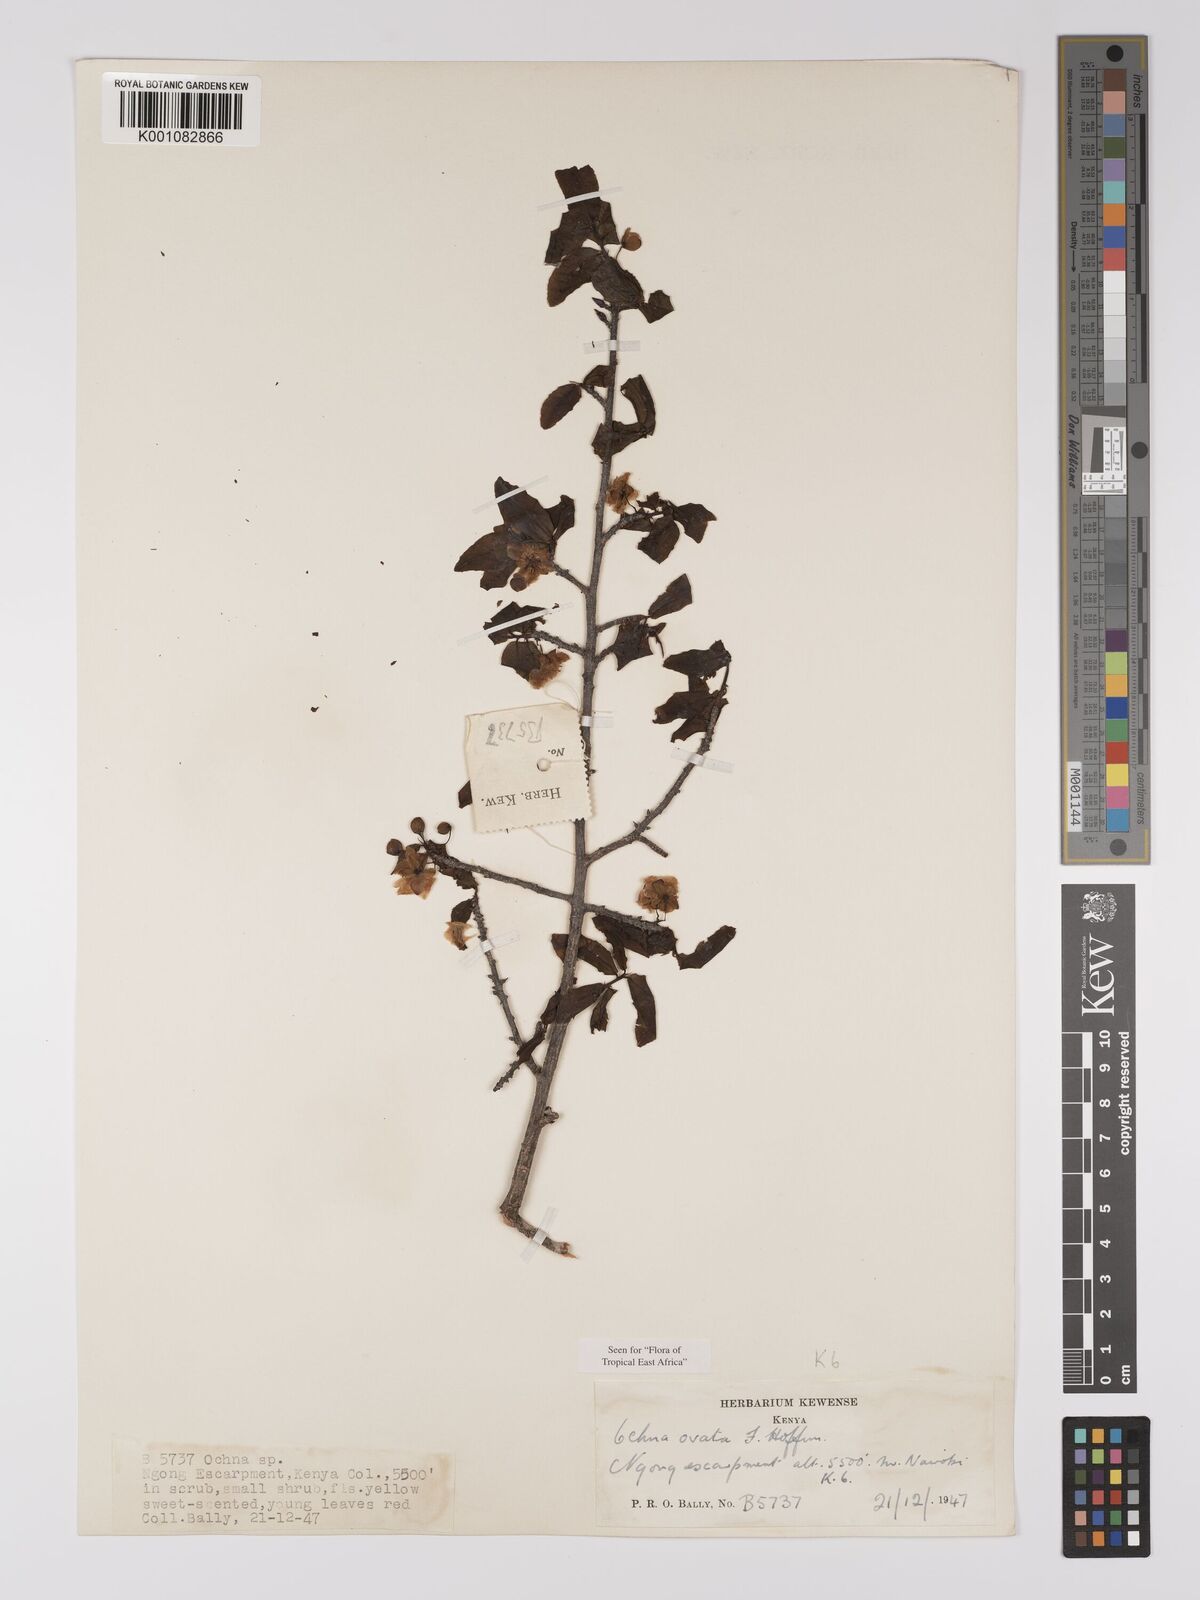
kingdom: Plantae
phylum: Tracheophyta
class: Magnoliopsida
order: Malpighiales
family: Ochnaceae
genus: Ochna
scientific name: Ochna ovata
